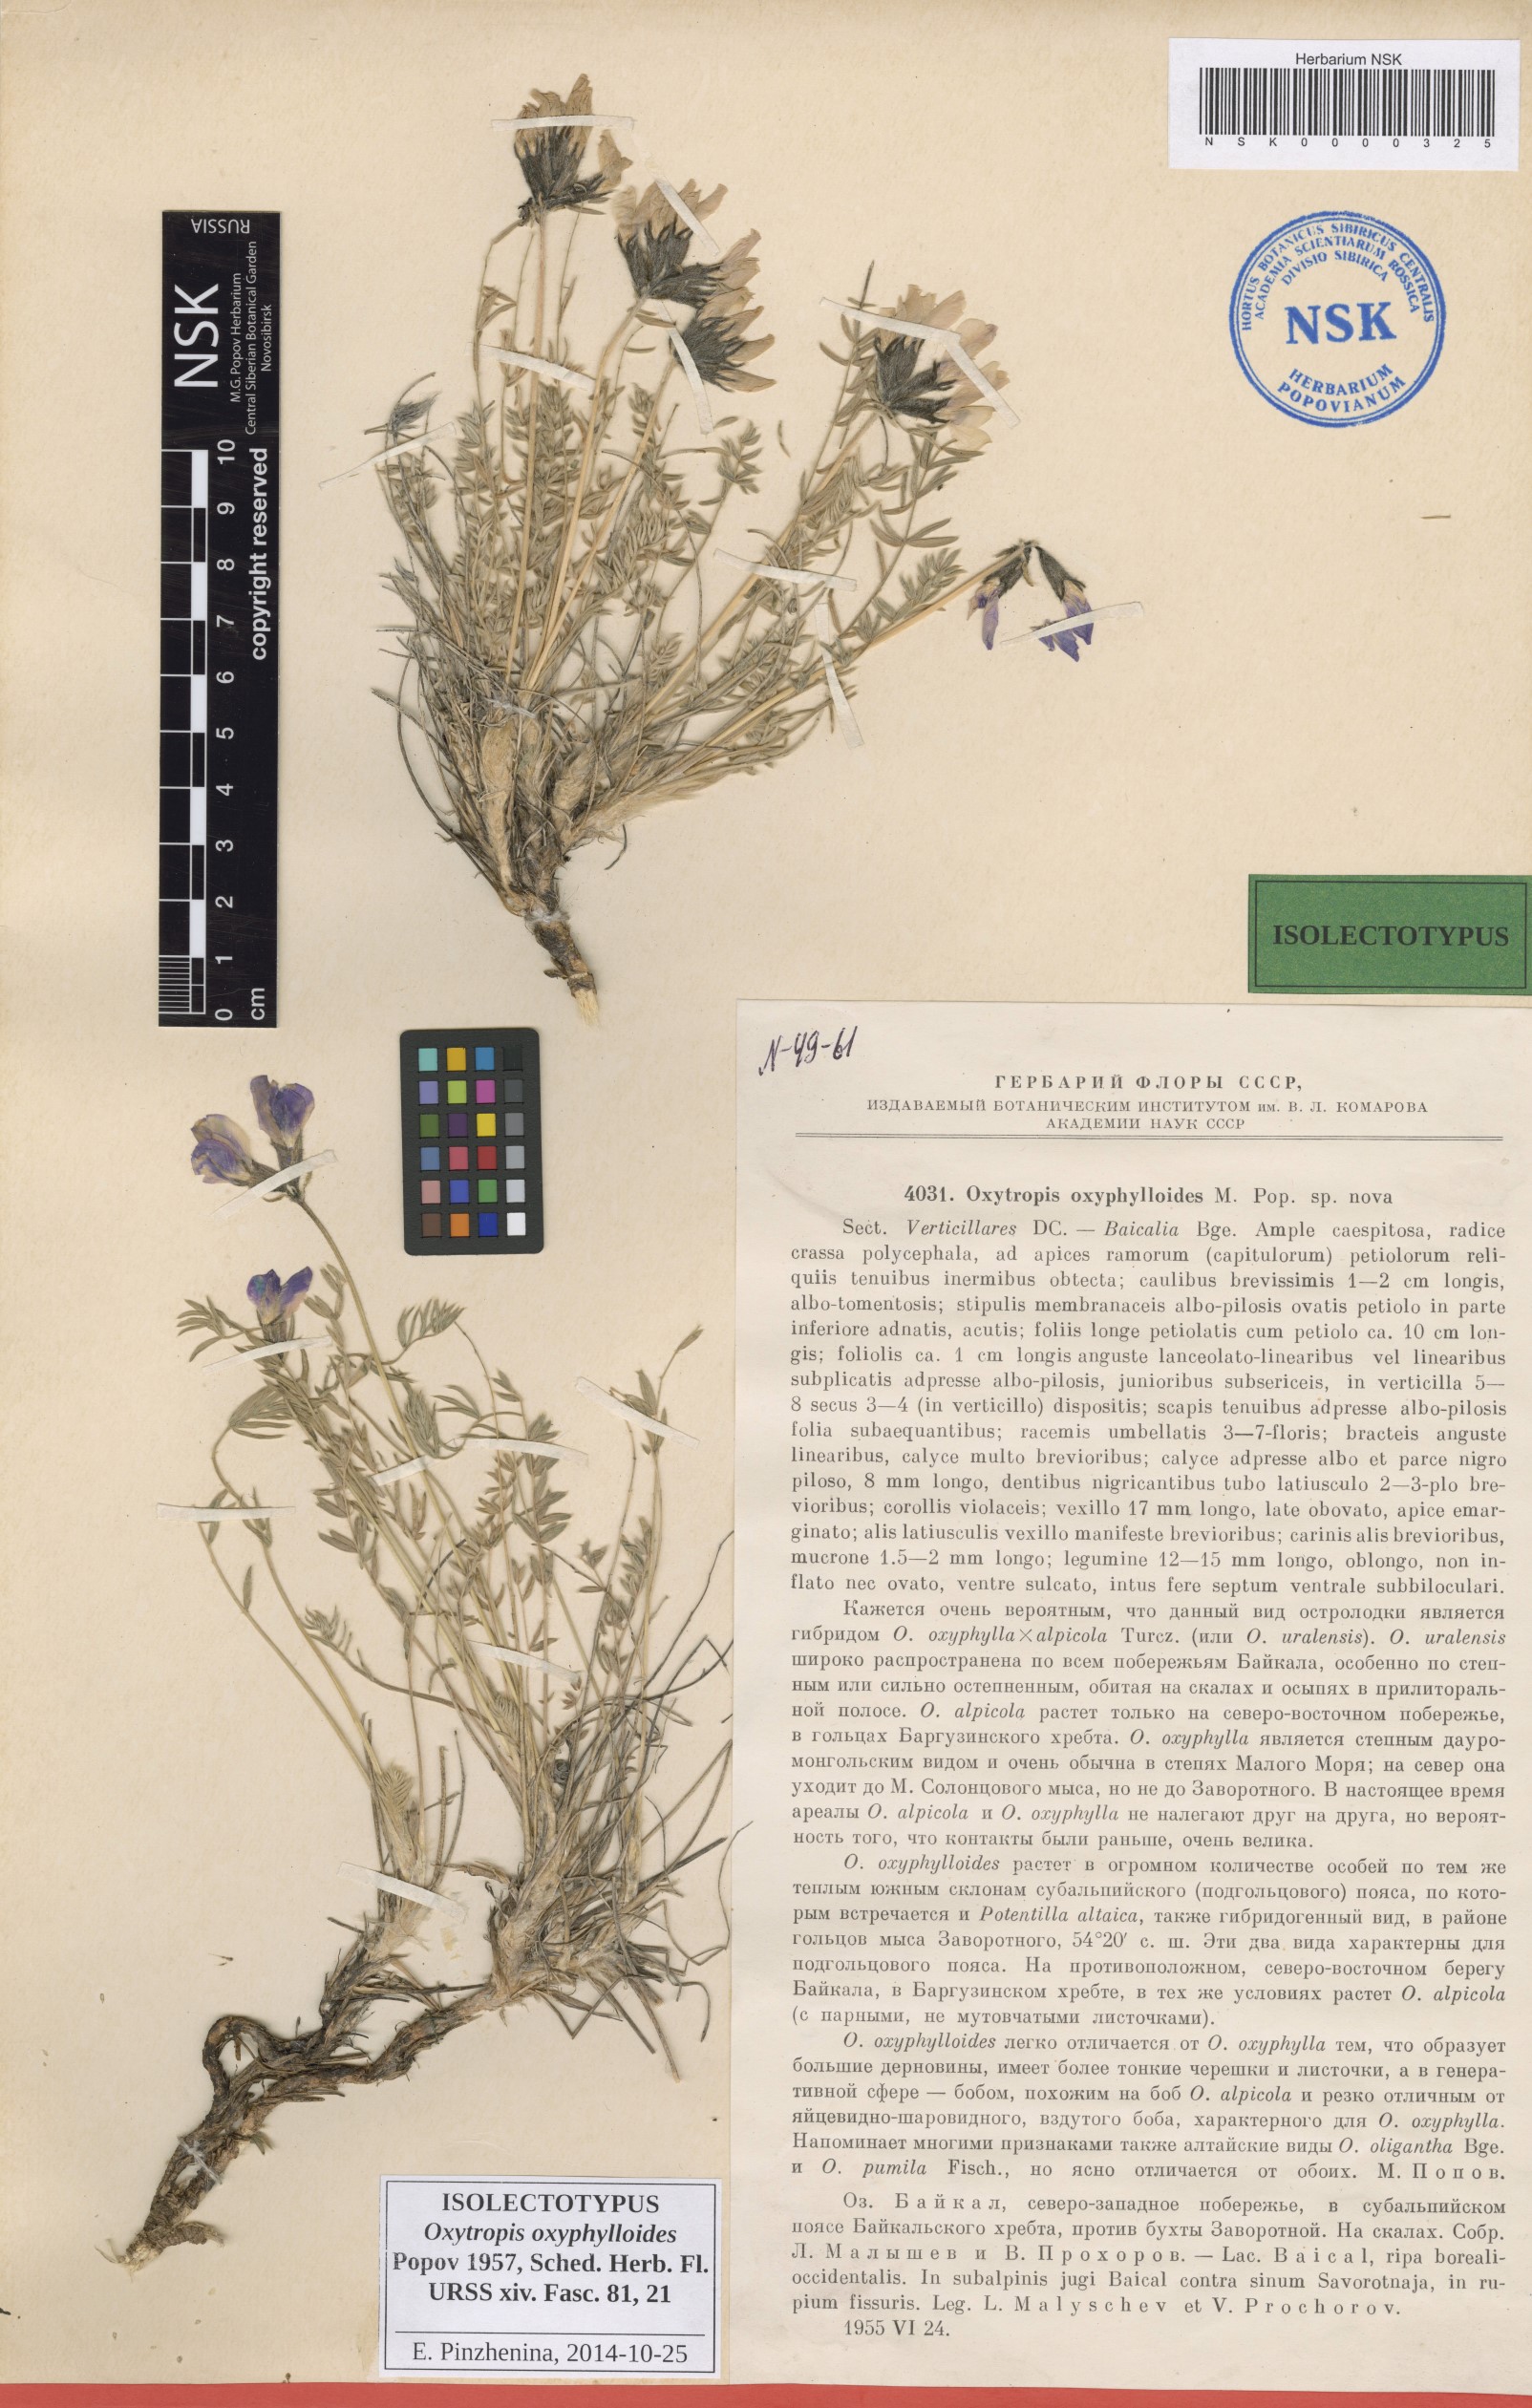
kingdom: Plantae
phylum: Tracheophyta
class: Magnoliopsida
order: Fabales
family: Fabaceae
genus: Oxytropis
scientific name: Oxytropis oxyphylloides
